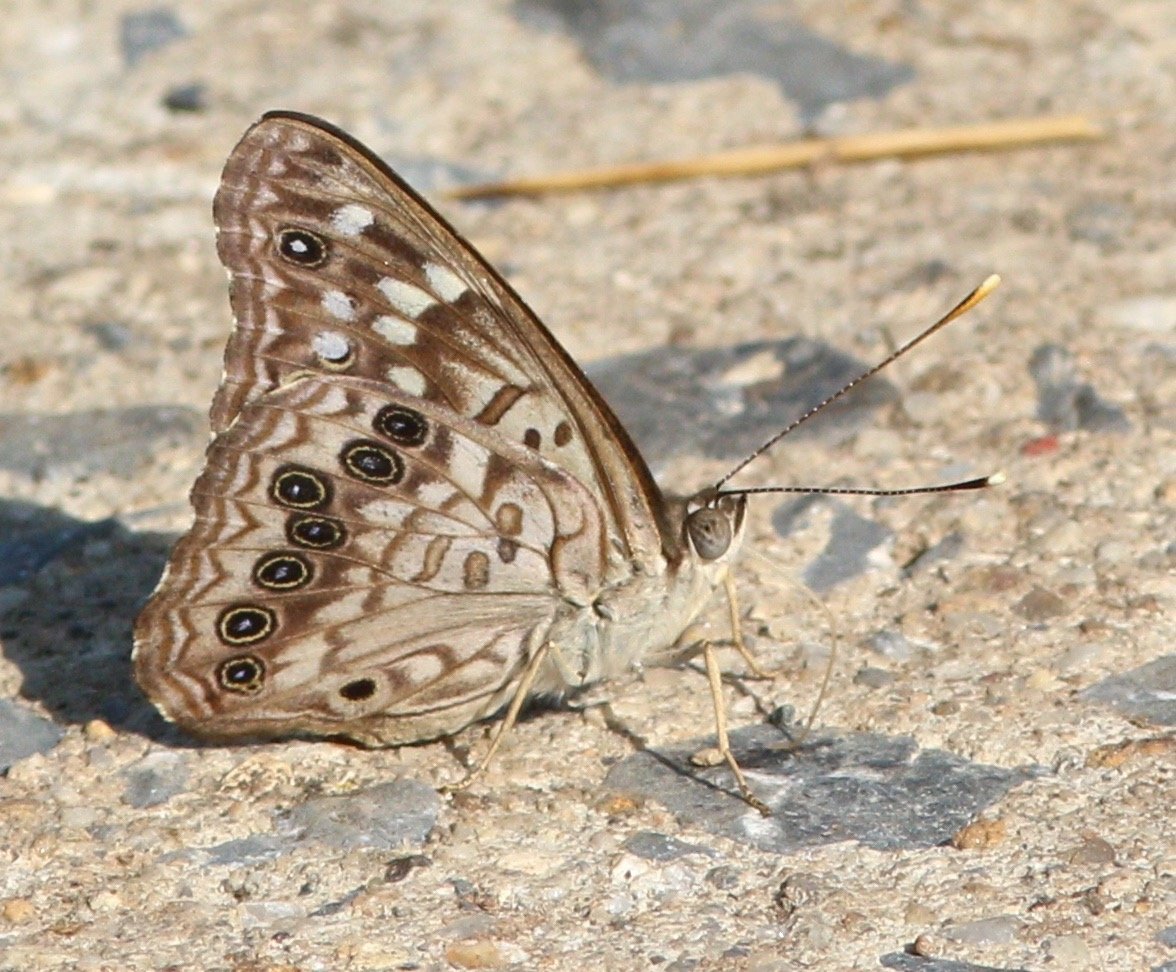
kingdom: Animalia
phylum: Arthropoda
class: Insecta
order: Lepidoptera
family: Nymphalidae
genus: Asterocampa
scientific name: Asterocampa celtis
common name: Hackberry Emperor
